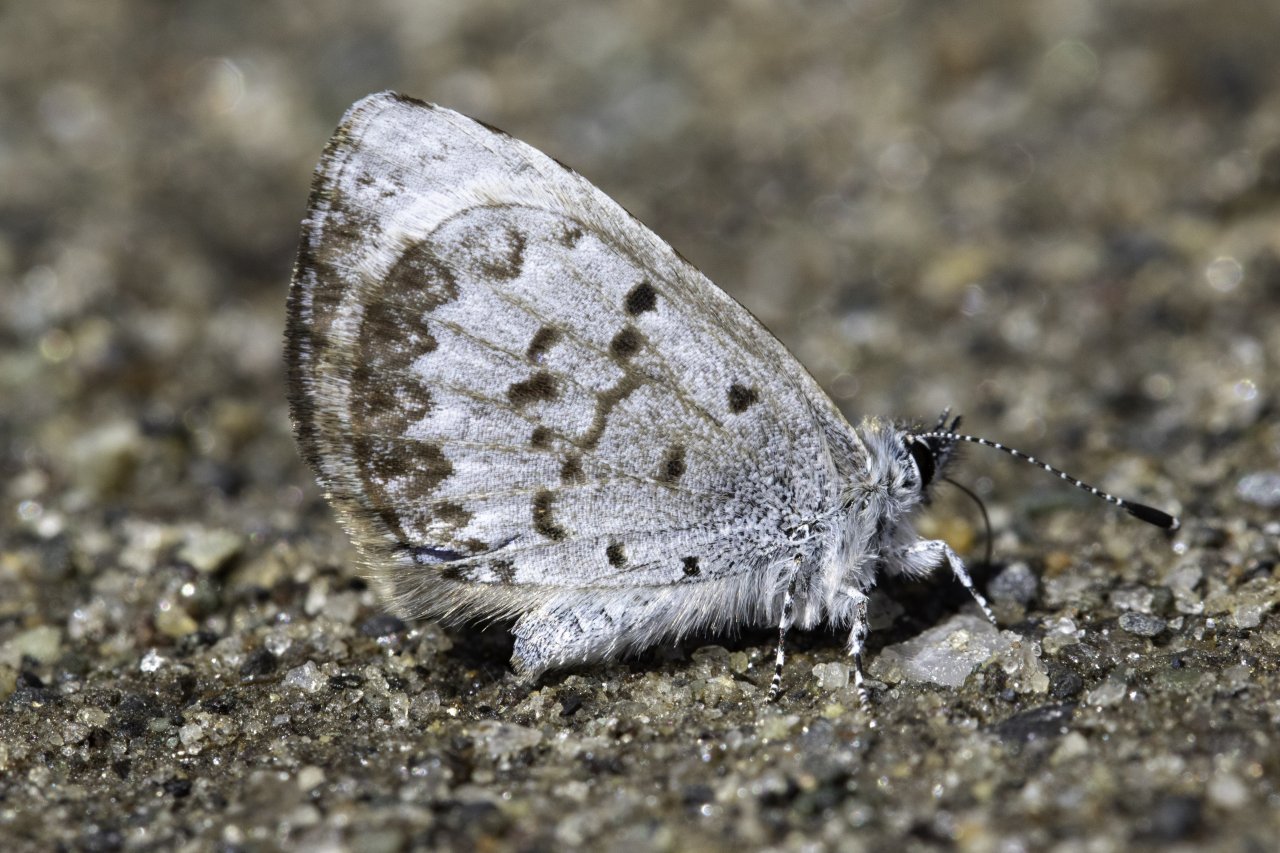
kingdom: Animalia
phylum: Arthropoda
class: Insecta
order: Lepidoptera
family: Lycaenidae
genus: Celastrina
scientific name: Celastrina lucia
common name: Northern Spring Azure
